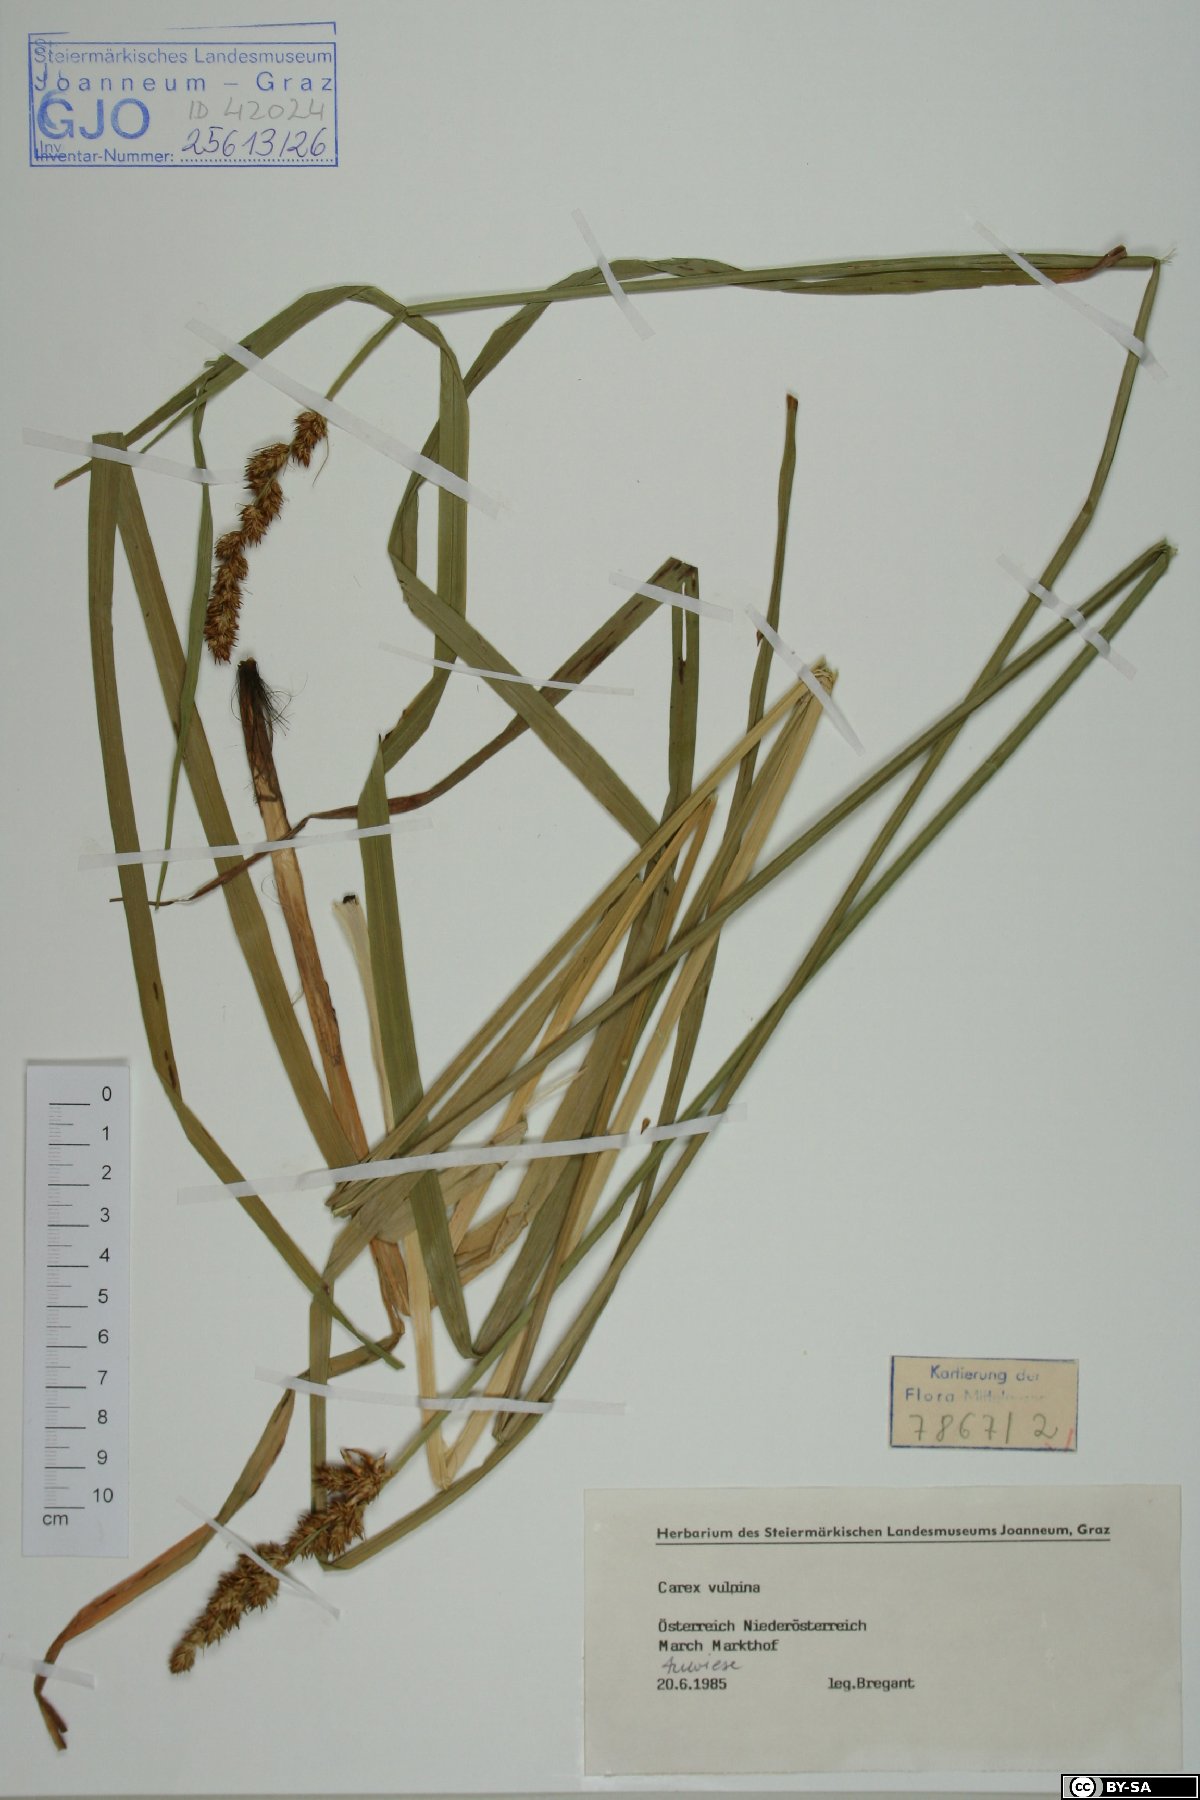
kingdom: Plantae
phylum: Tracheophyta
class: Liliopsida
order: Poales
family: Cyperaceae
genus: Carex
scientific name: Carex vulpina
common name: True fox-sedge
